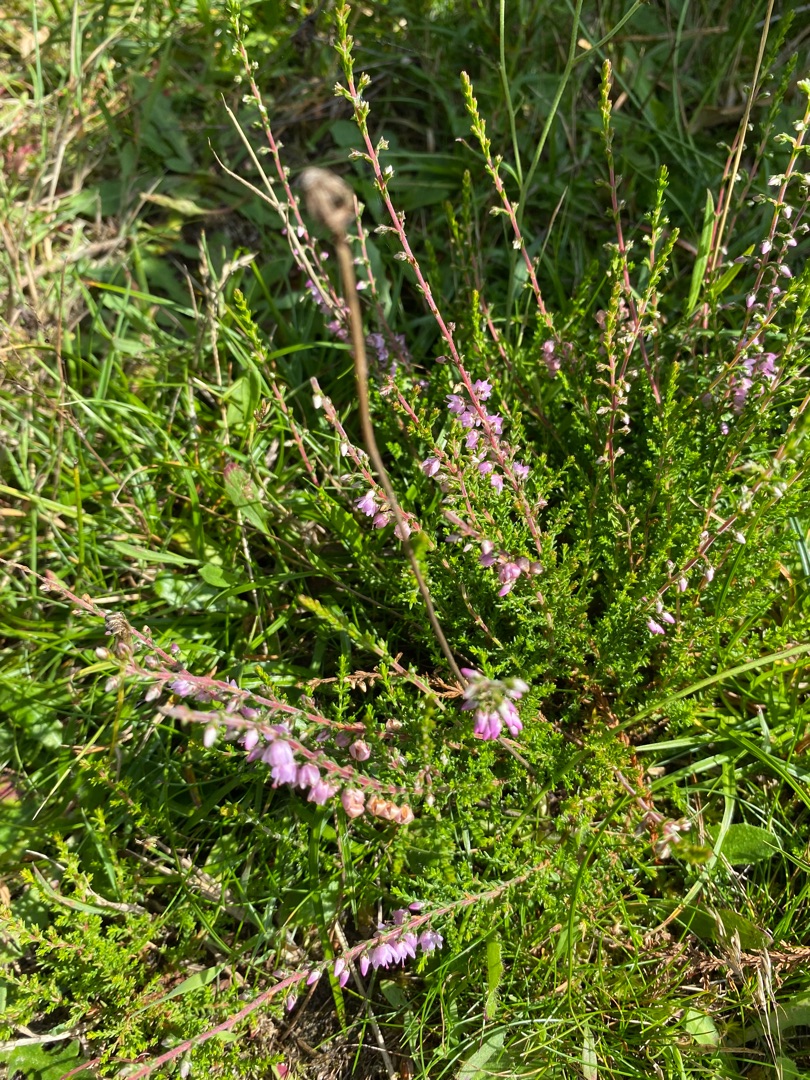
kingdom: Plantae
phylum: Tracheophyta
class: Magnoliopsida
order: Ericales
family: Ericaceae
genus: Calluna
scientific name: Calluna vulgaris
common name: Hedelyng
